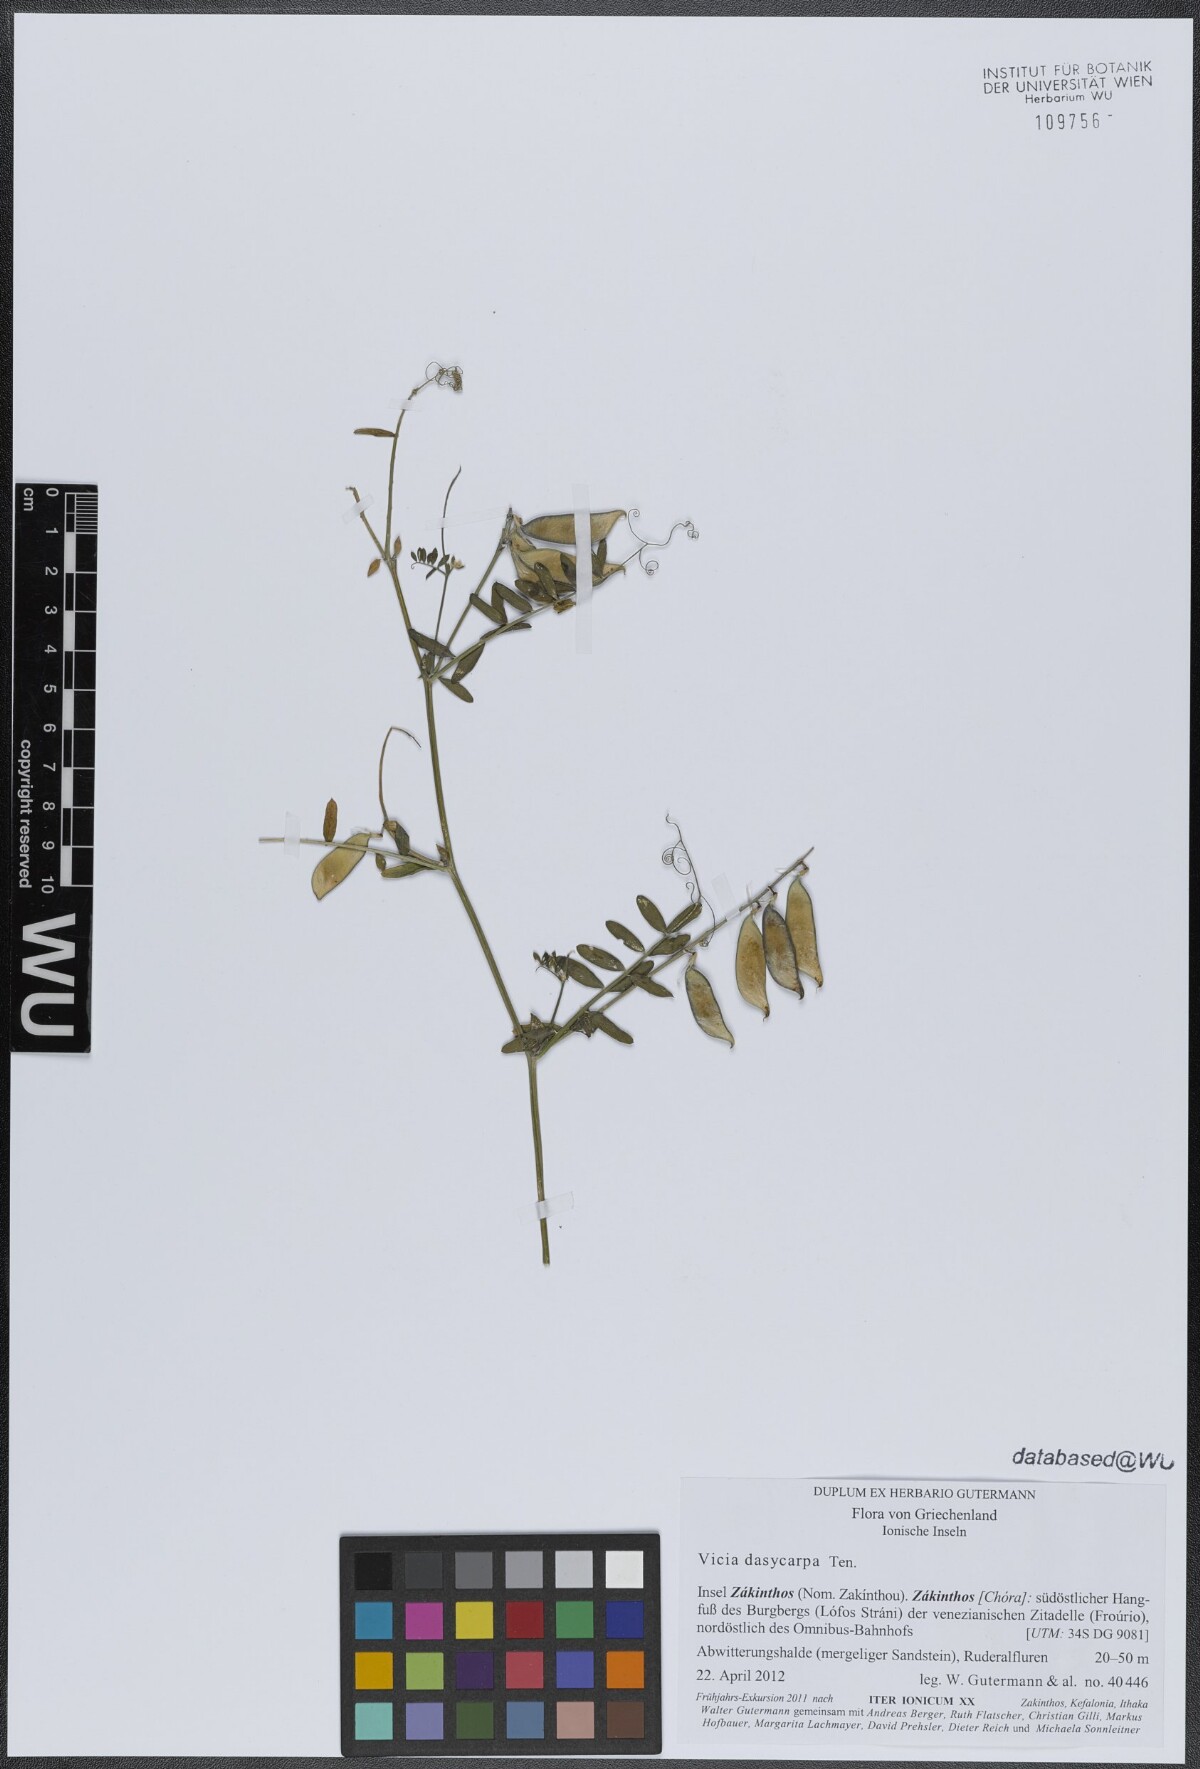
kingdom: Plantae
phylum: Tracheophyta
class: Magnoliopsida
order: Fabales
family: Fabaceae
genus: Vicia
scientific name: Vicia villosa
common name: Fodder vetch
